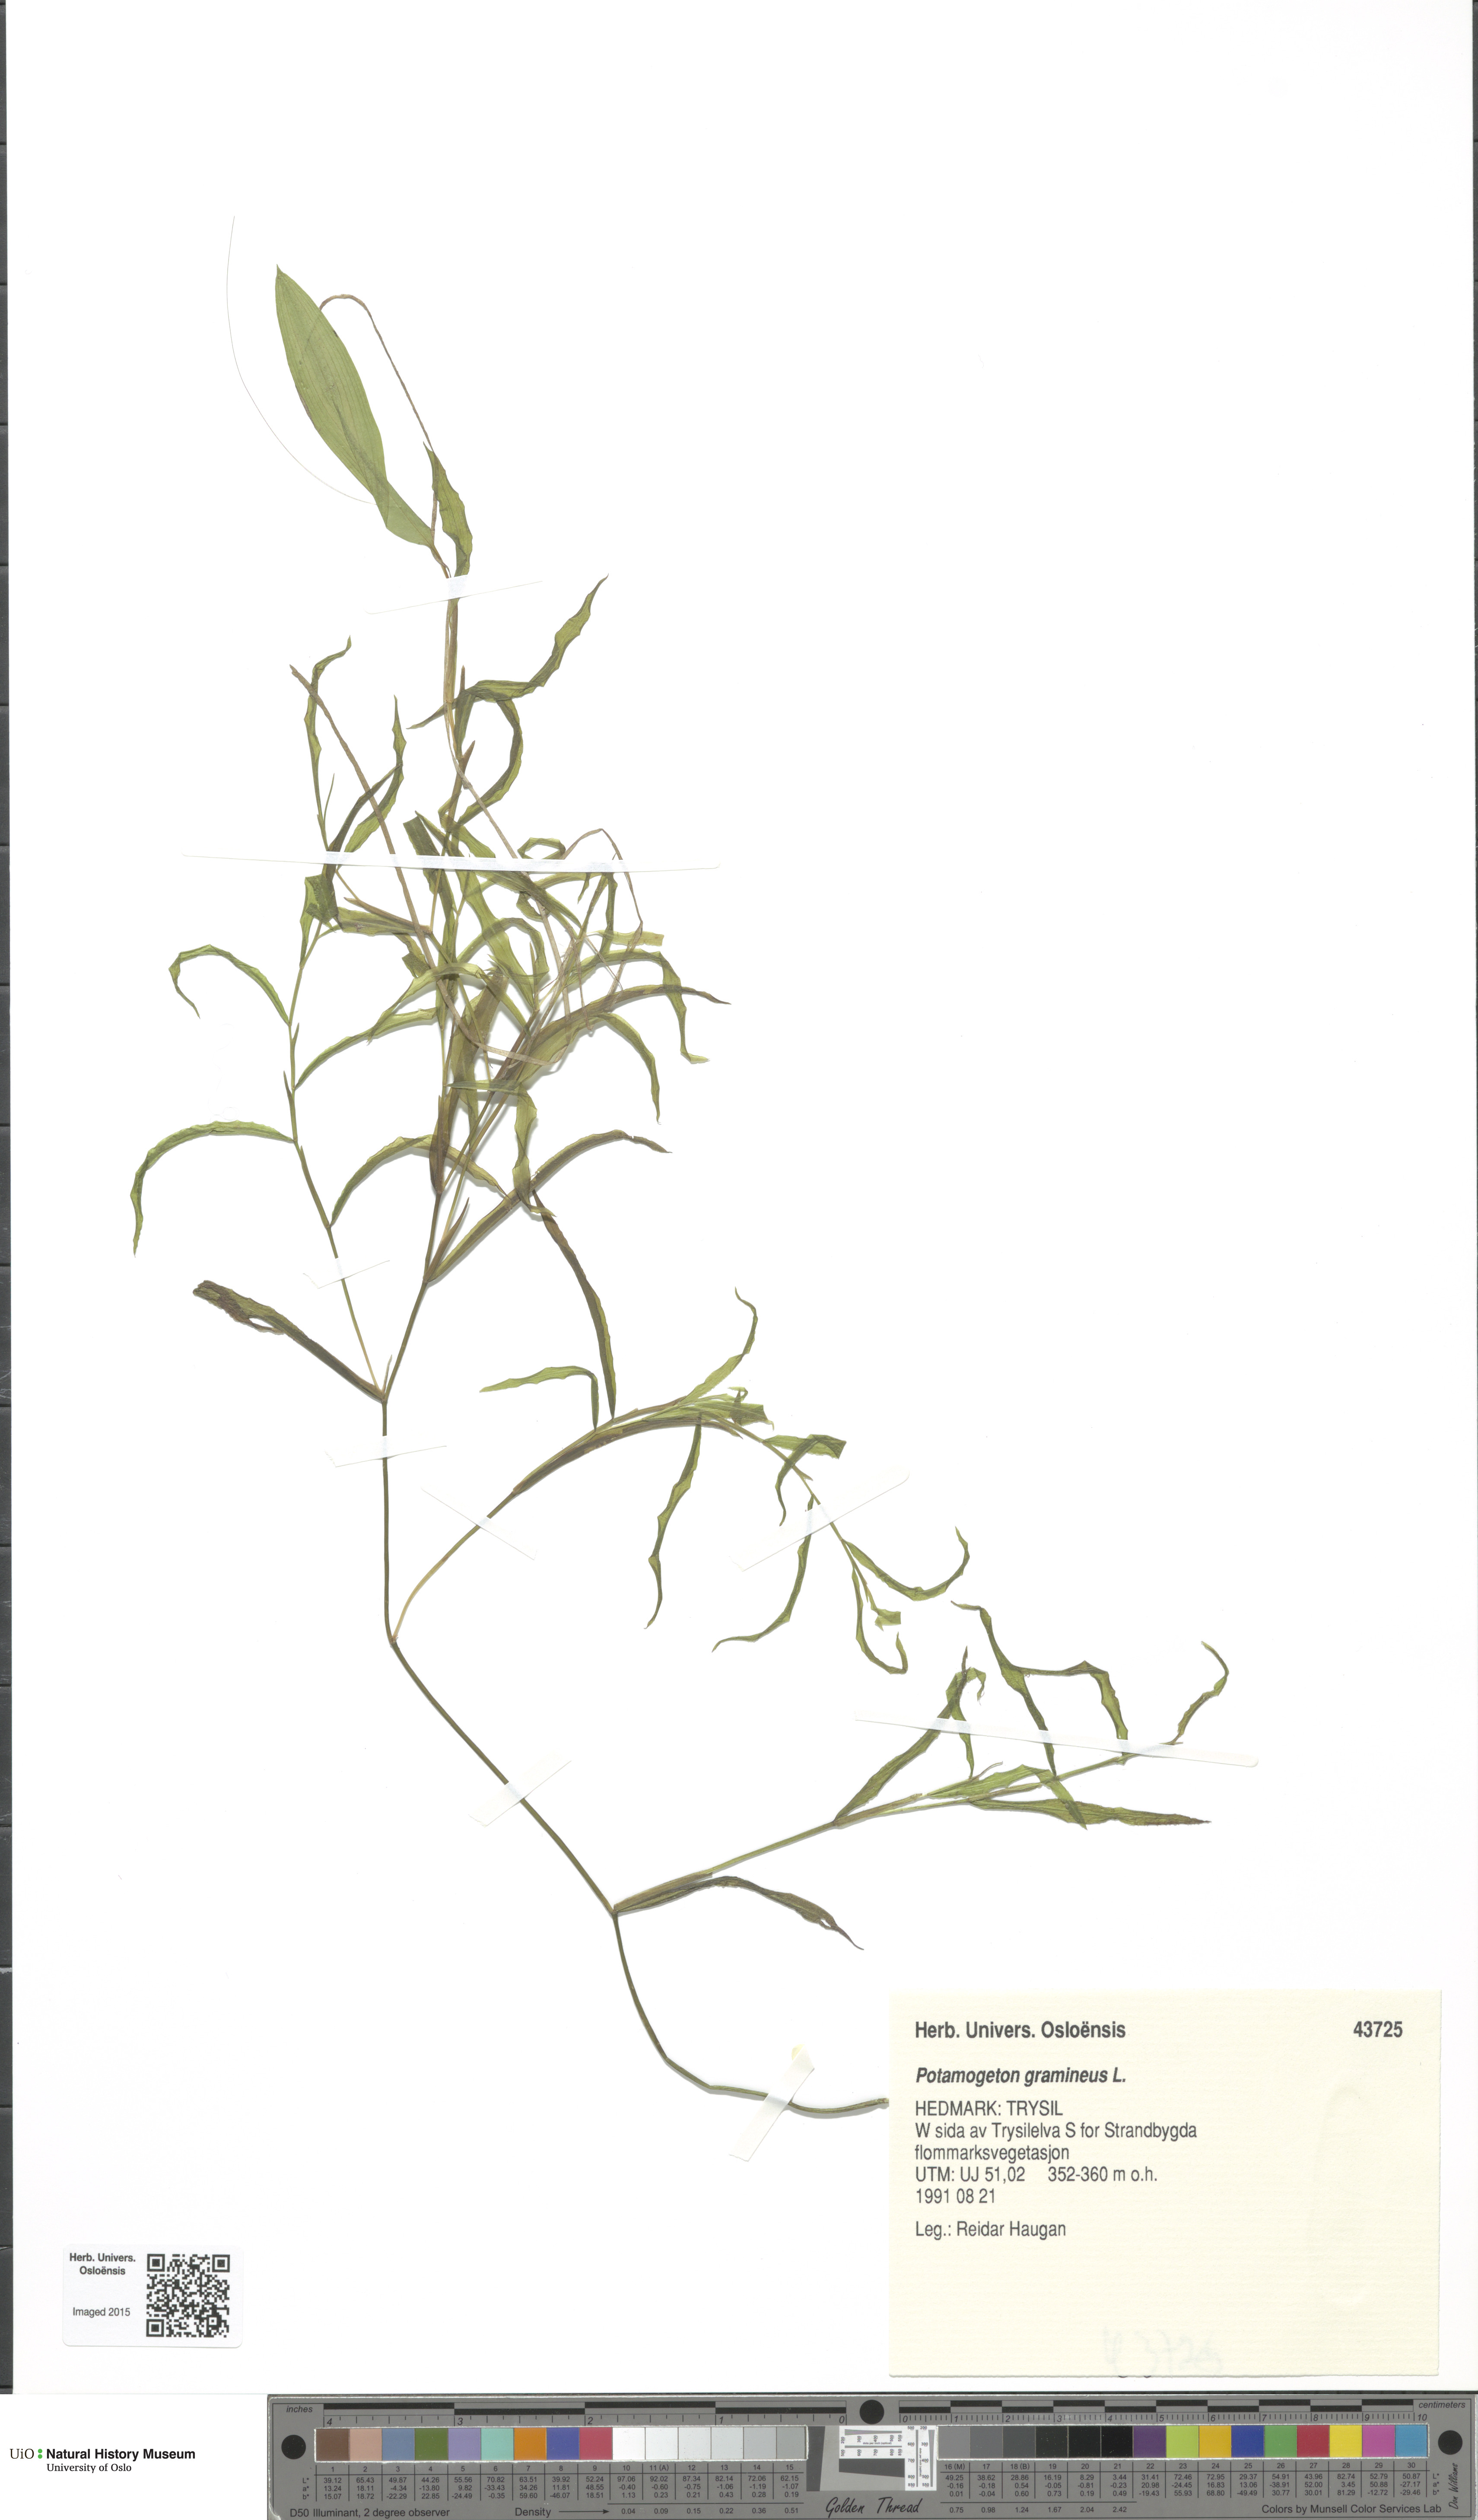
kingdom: Plantae
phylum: Tracheophyta
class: Liliopsida
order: Alismatales
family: Potamogetonaceae
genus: Potamogeton
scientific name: Potamogeton gramineus
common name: Various-leaved pondweed
